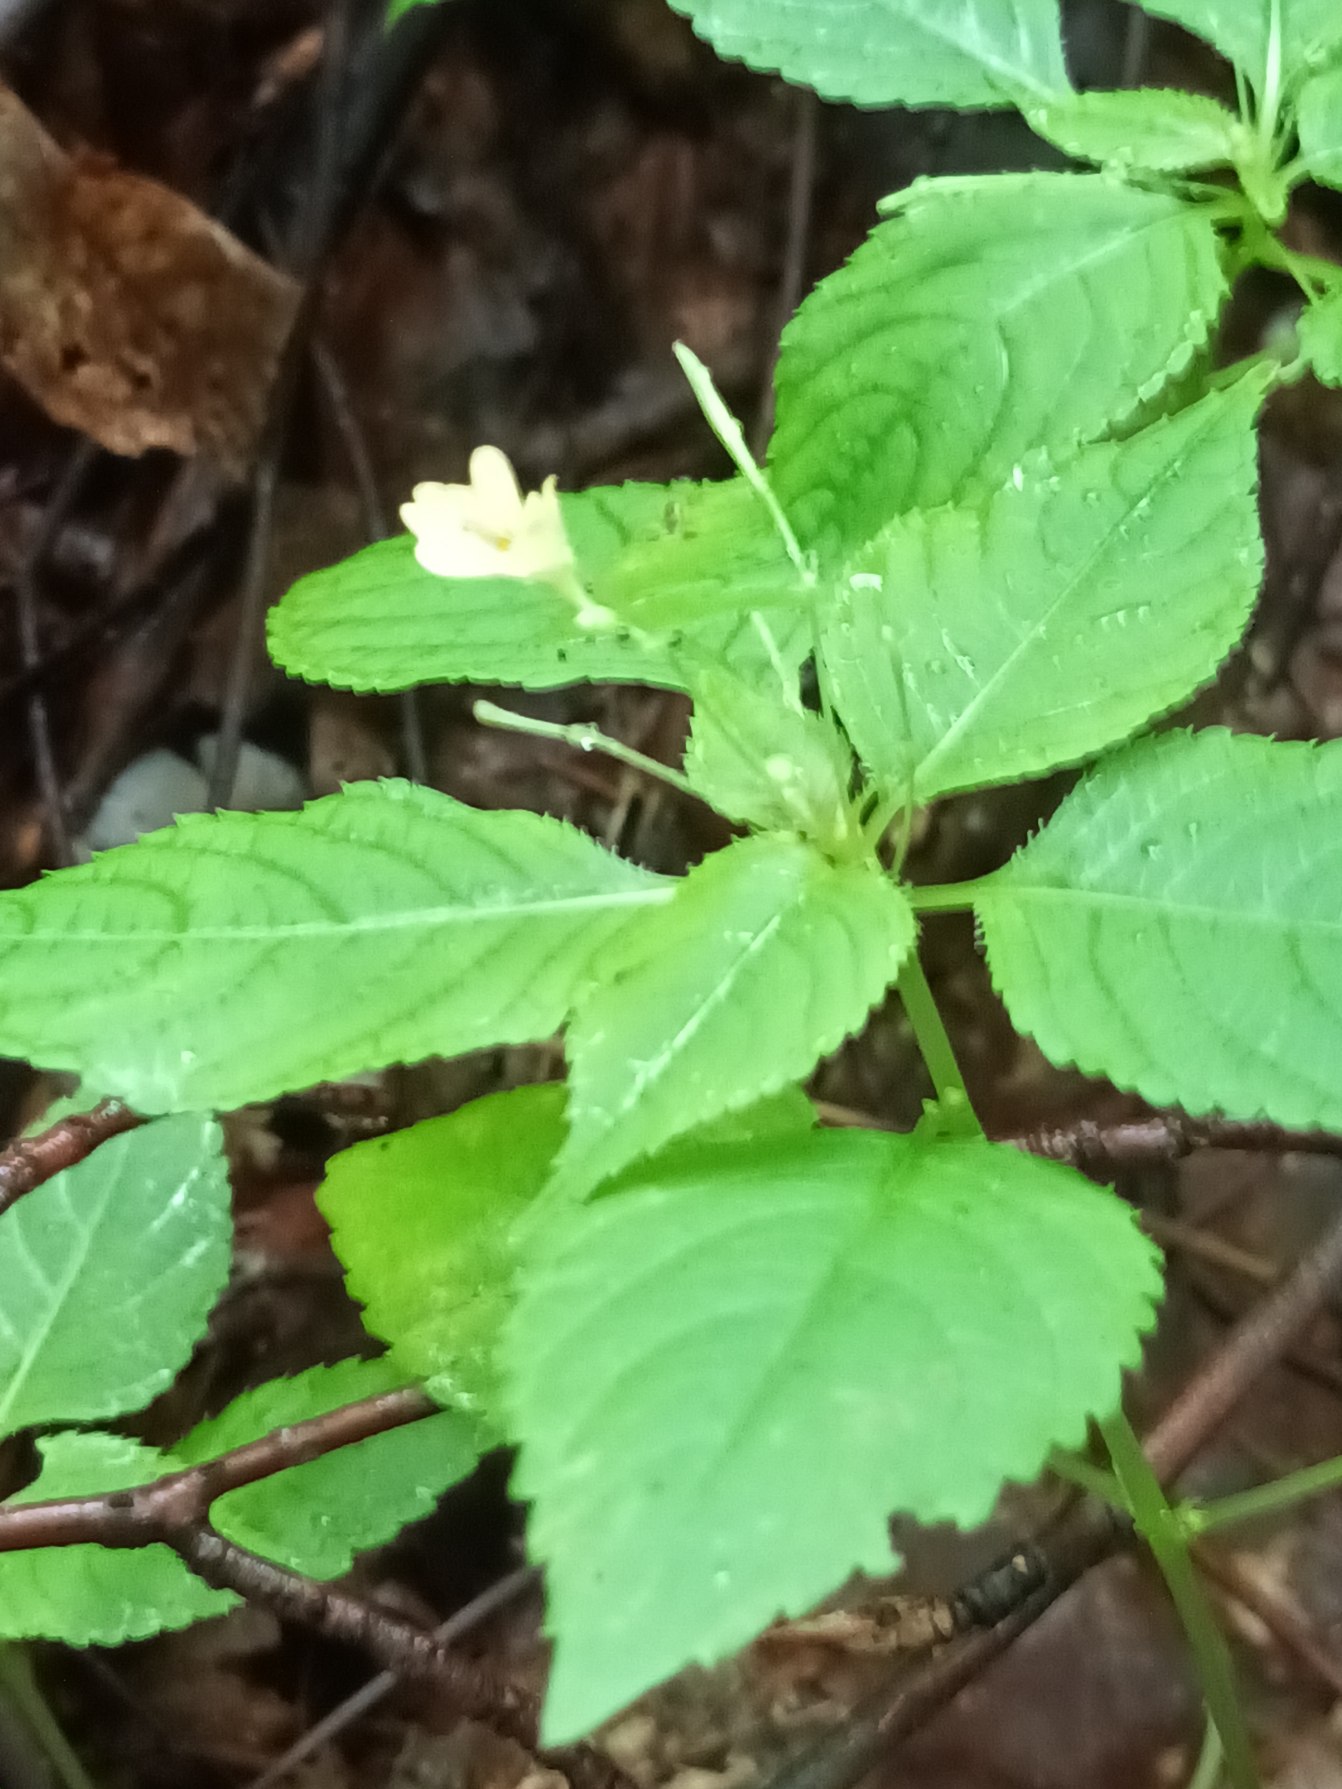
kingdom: Plantae
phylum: Tracheophyta
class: Magnoliopsida
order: Ericales
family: Balsaminaceae
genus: Impatiens
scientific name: Impatiens parviflora
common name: Småblomstret balsamin
